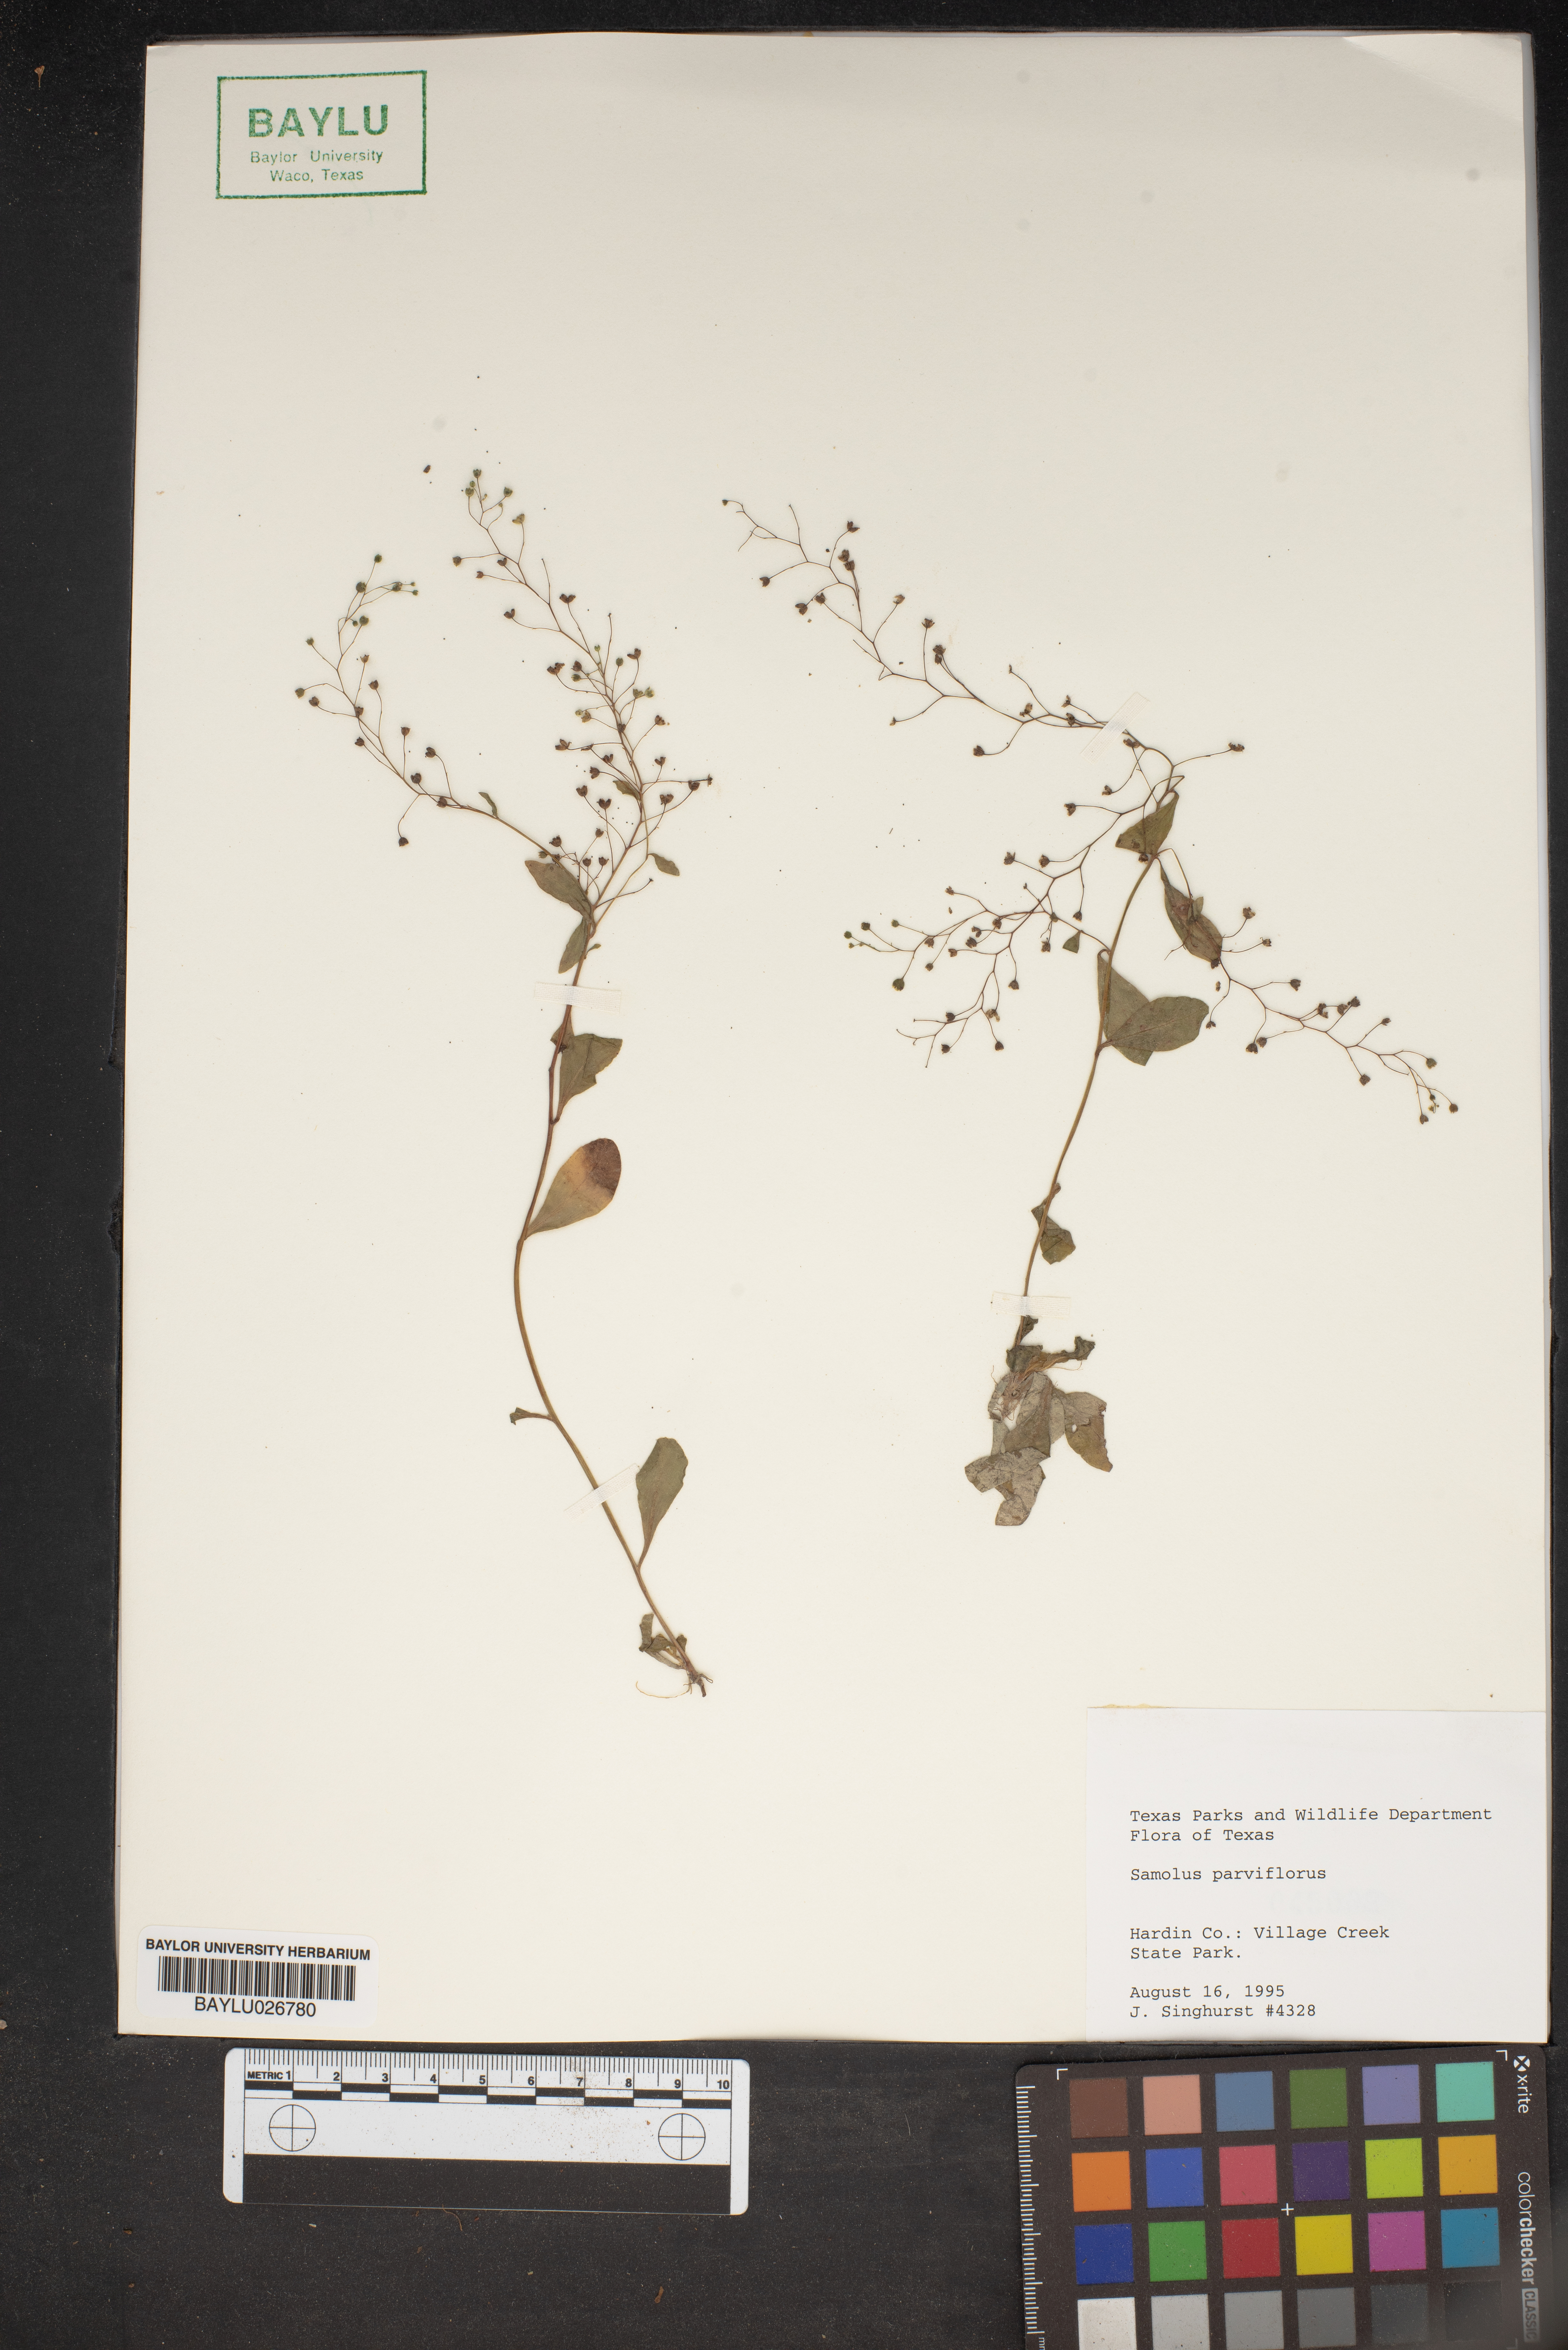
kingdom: Plantae
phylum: Tracheophyta
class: Magnoliopsida
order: Ericales
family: Primulaceae
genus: Samolus
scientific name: Samolus parviflorus
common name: False water pimpernel
